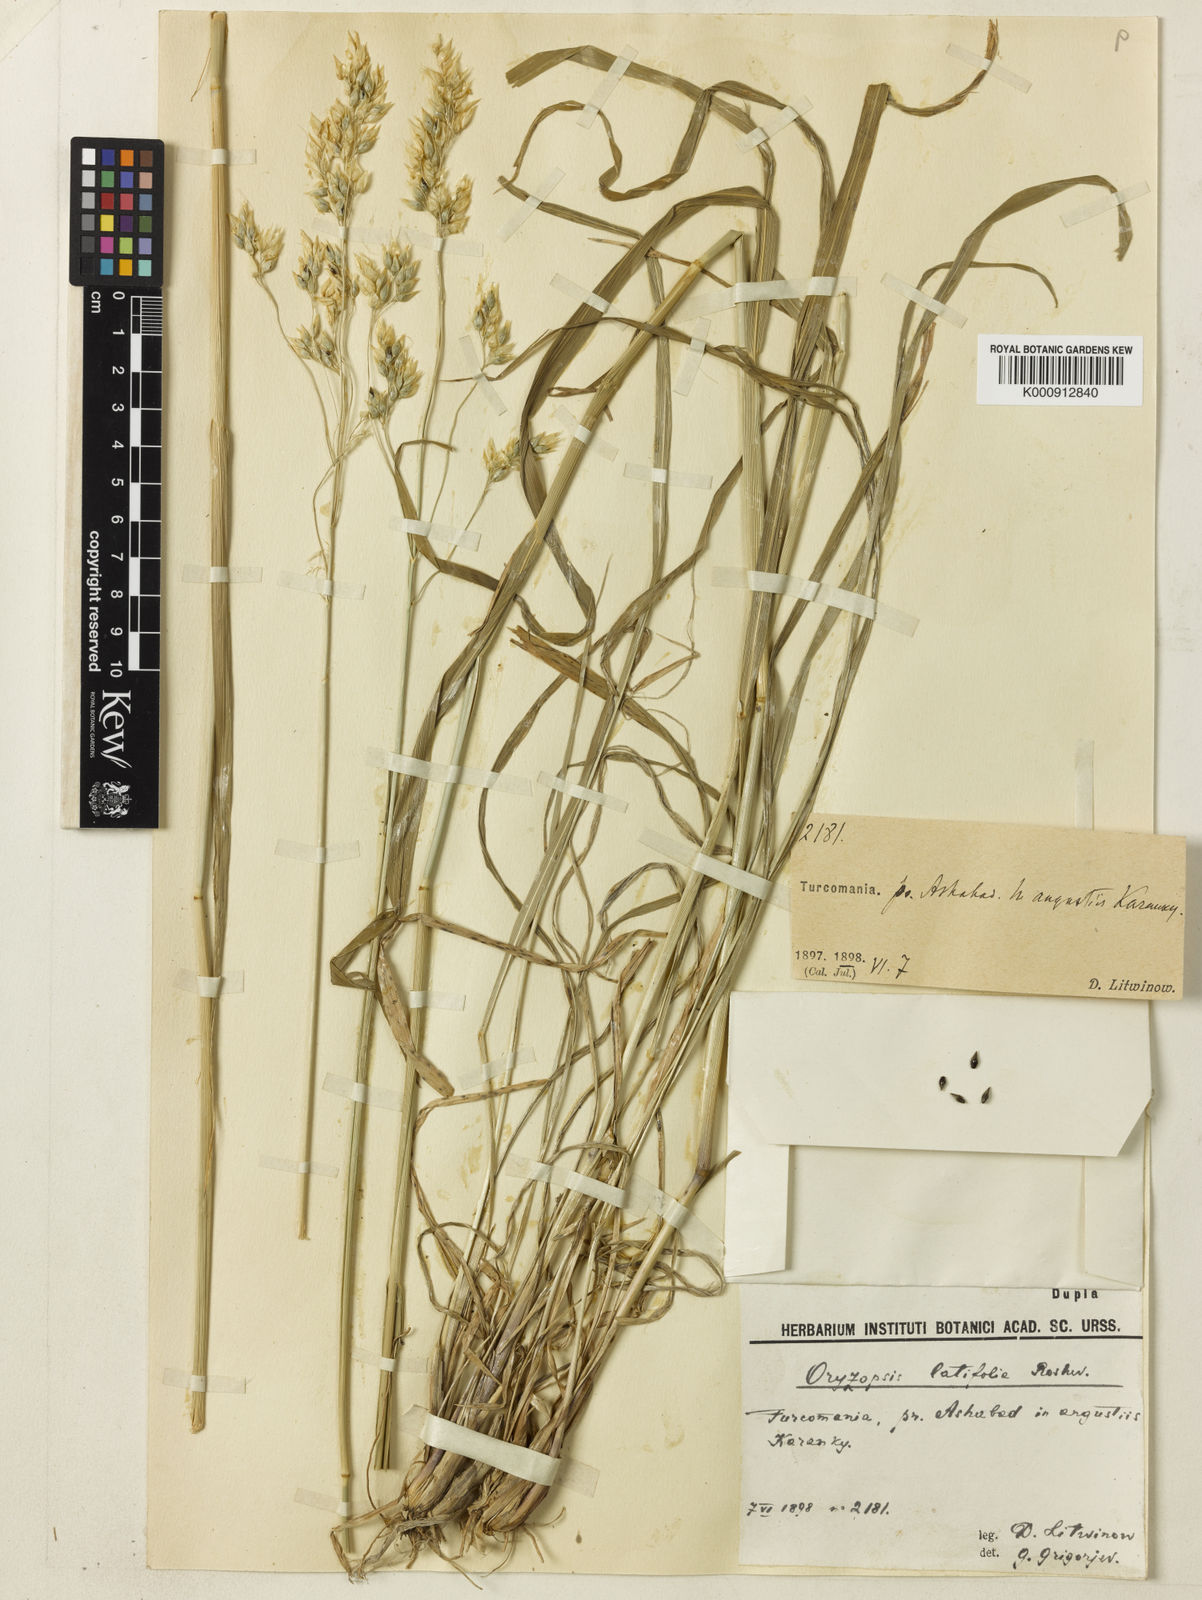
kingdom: Plantae
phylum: Tracheophyta
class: Liliopsida
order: Poales
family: Poaceae
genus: Piptatherum
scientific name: Piptatherum latifolium
